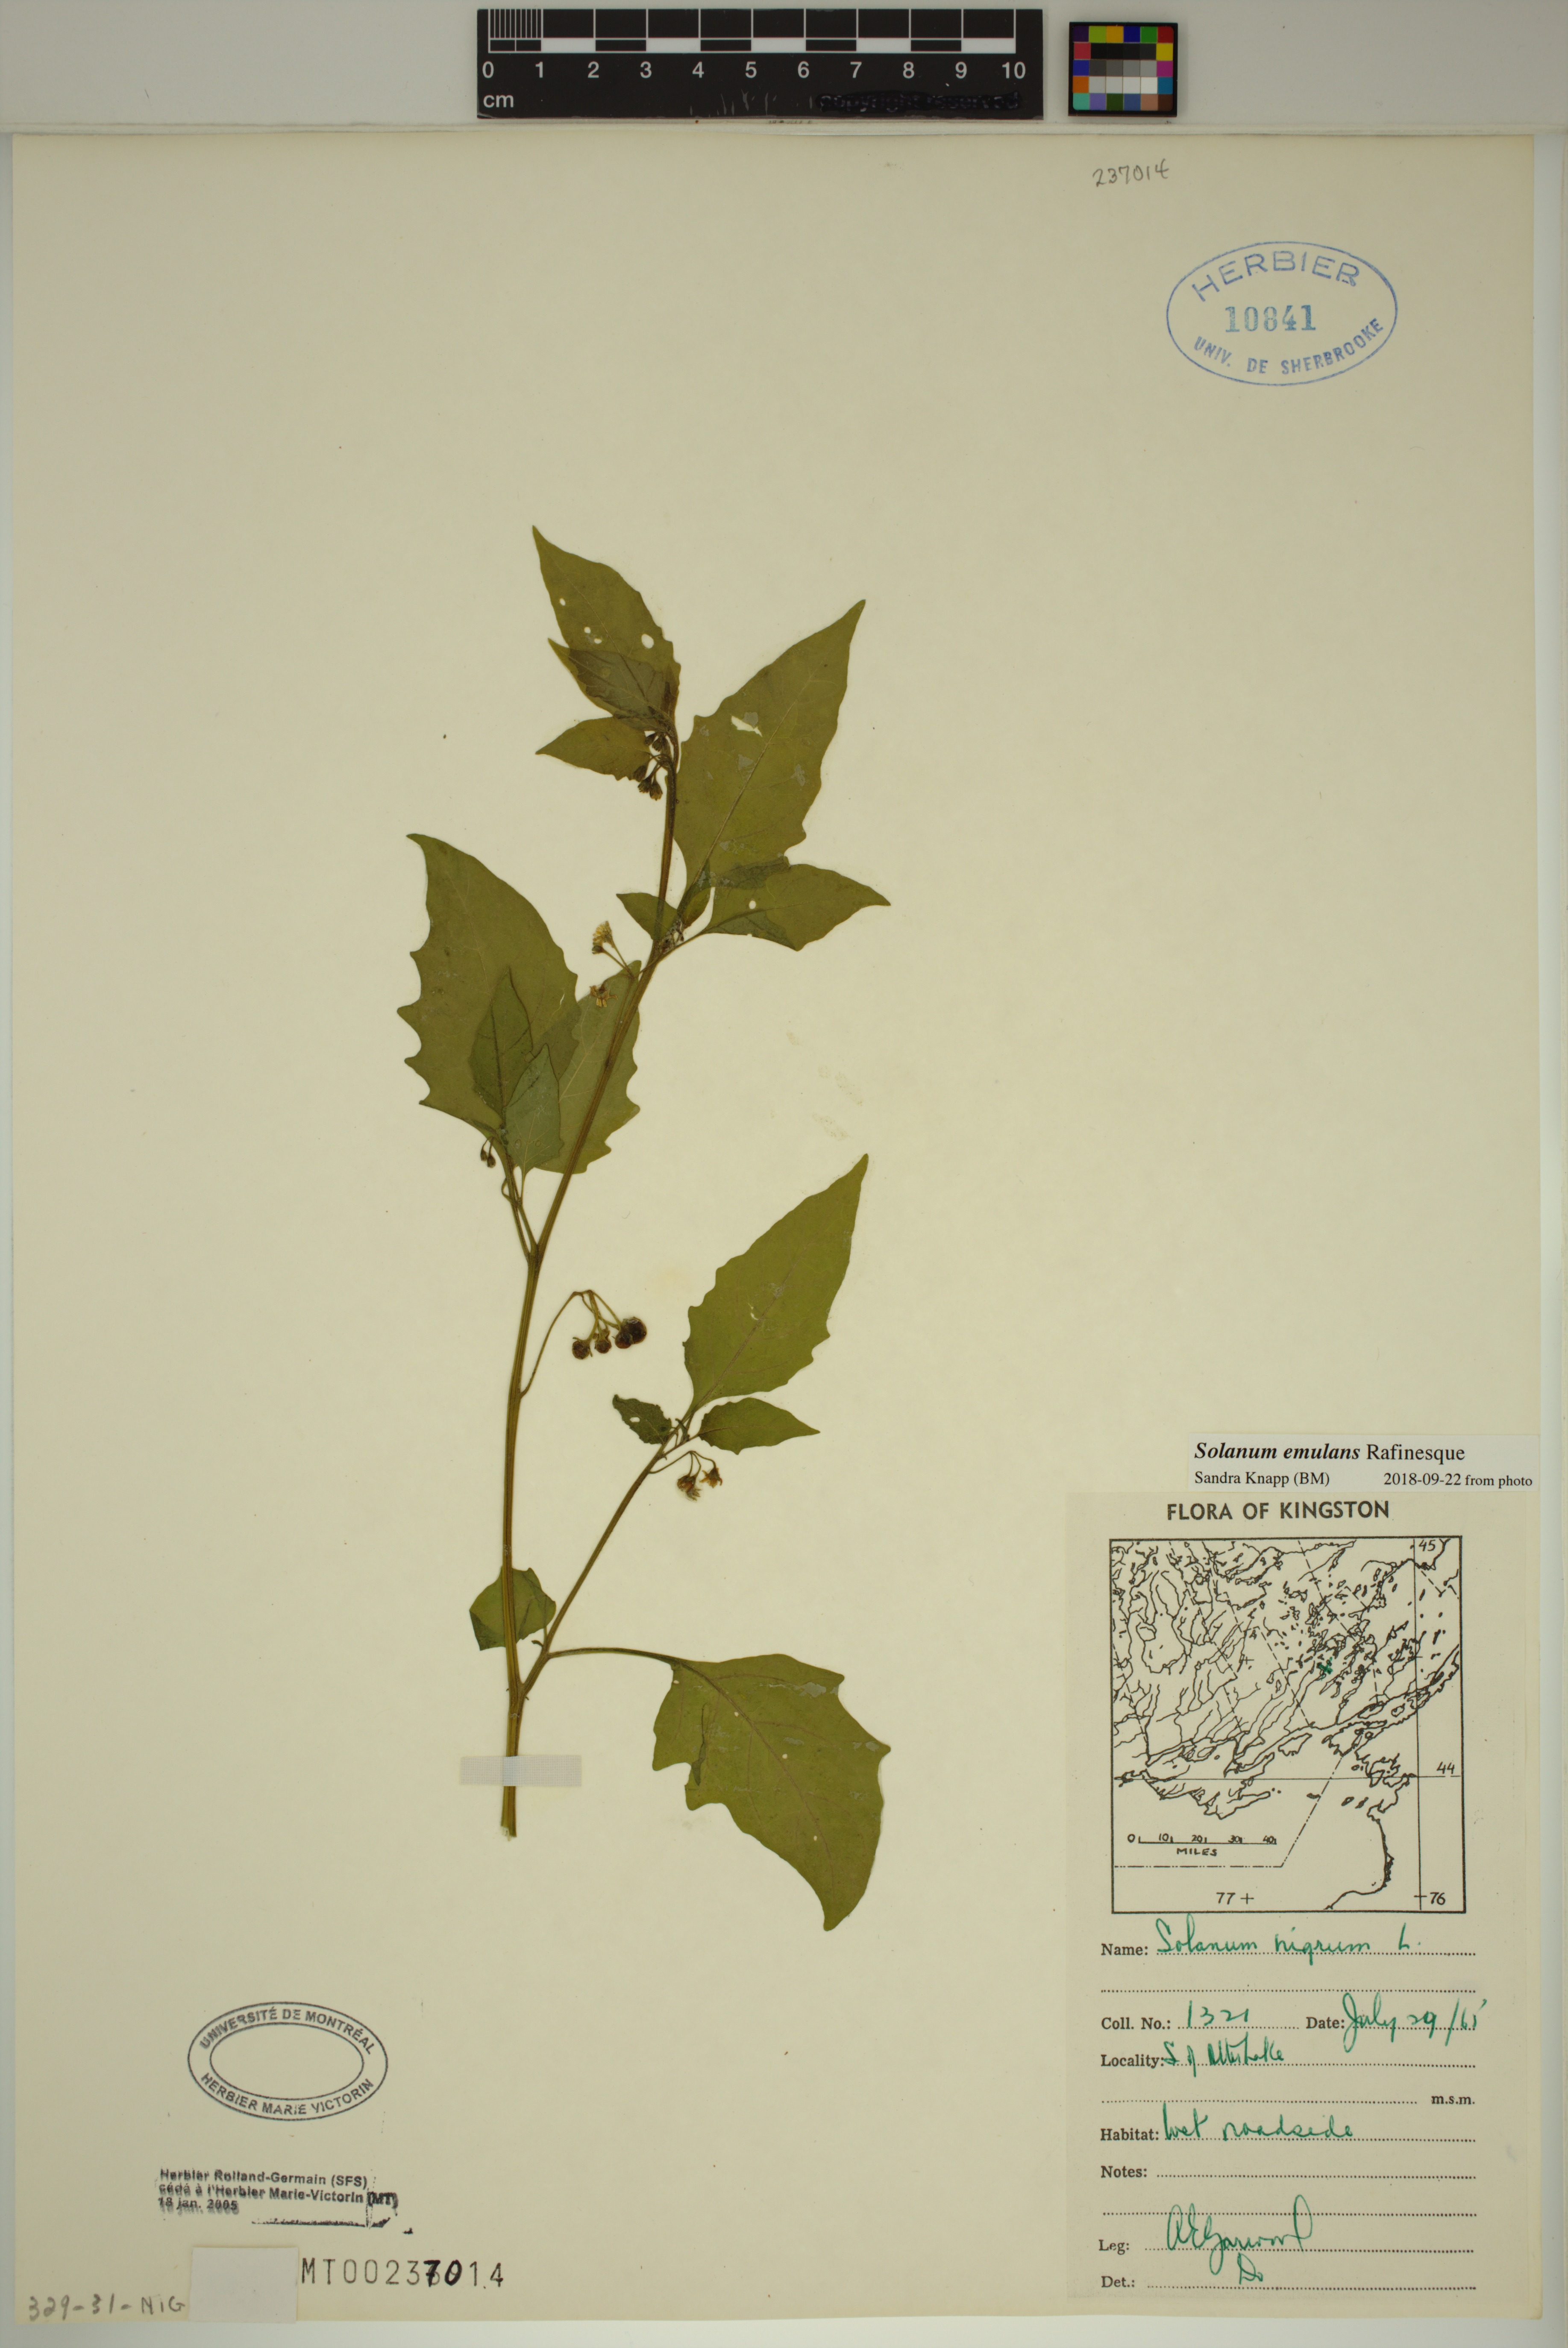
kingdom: Plantae
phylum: Tracheophyta
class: Magnoliopsida
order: Solanales
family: Solanaceae
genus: Solanum
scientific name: Solanum emulans
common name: Eastern black nightshade
